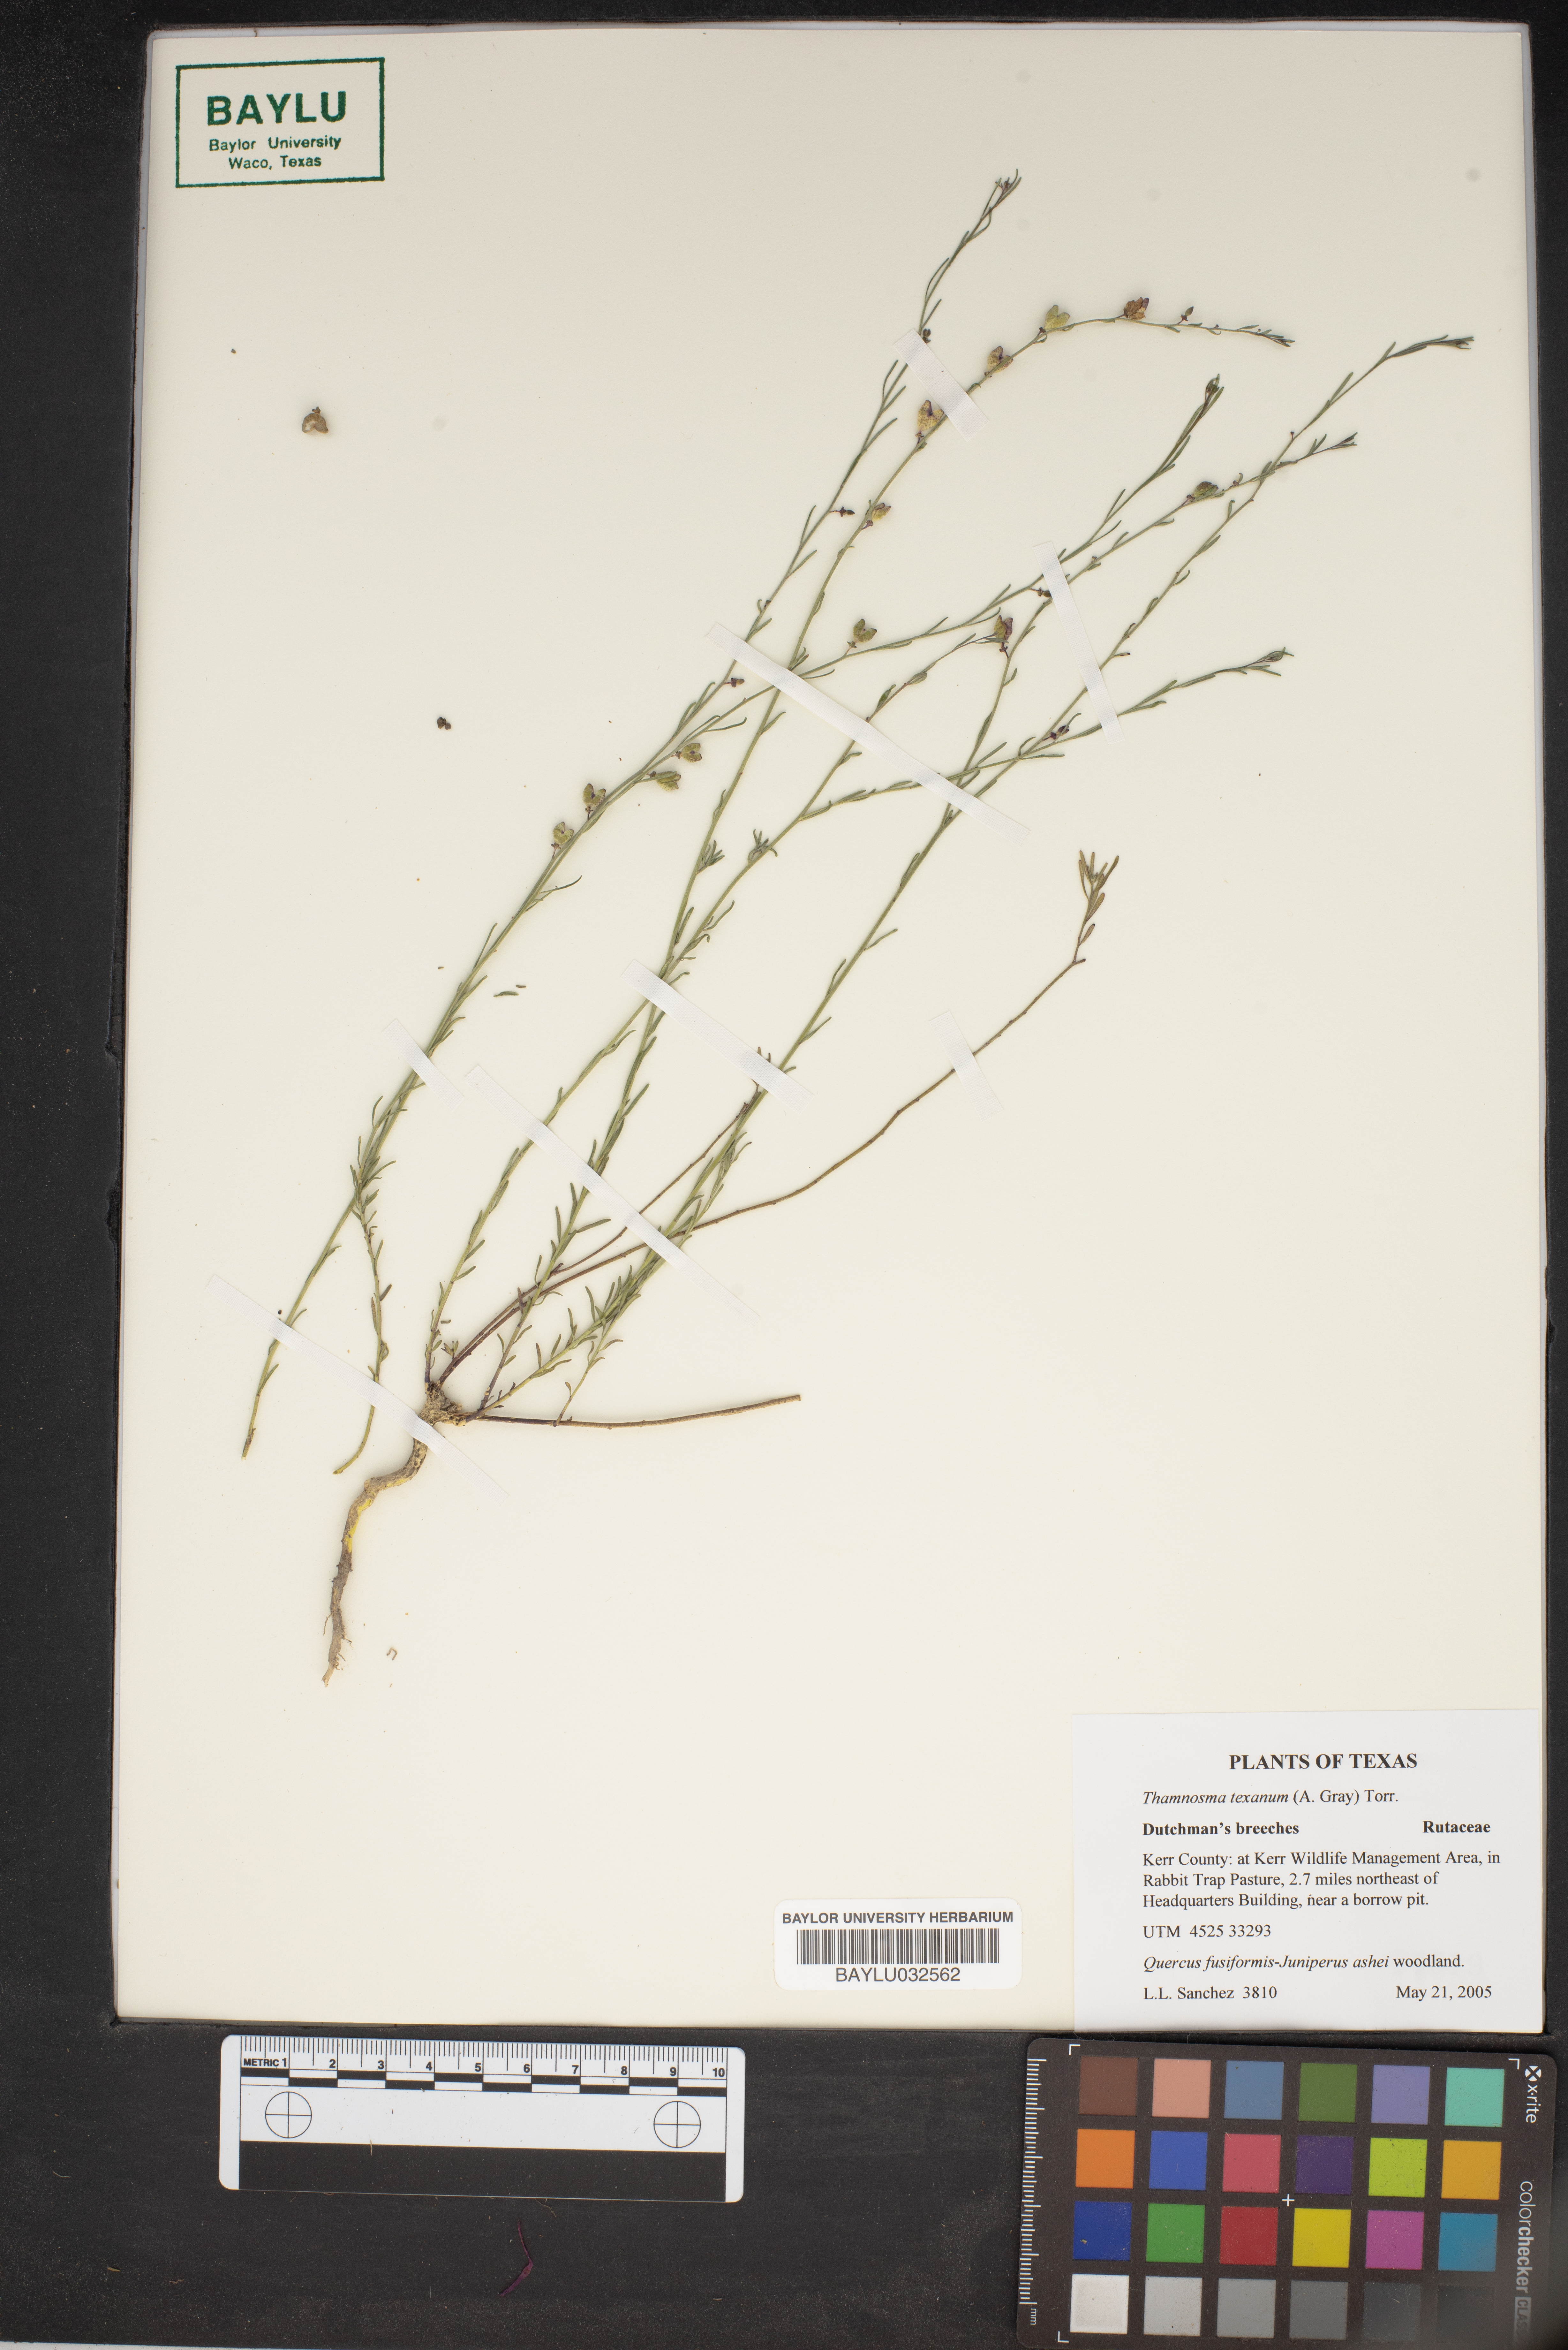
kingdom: Plantae
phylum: Tracheophyta
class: Magnoliopsida
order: Sapindales
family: Rutaceae
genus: Thamnosma
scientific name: Thamnosma texana
